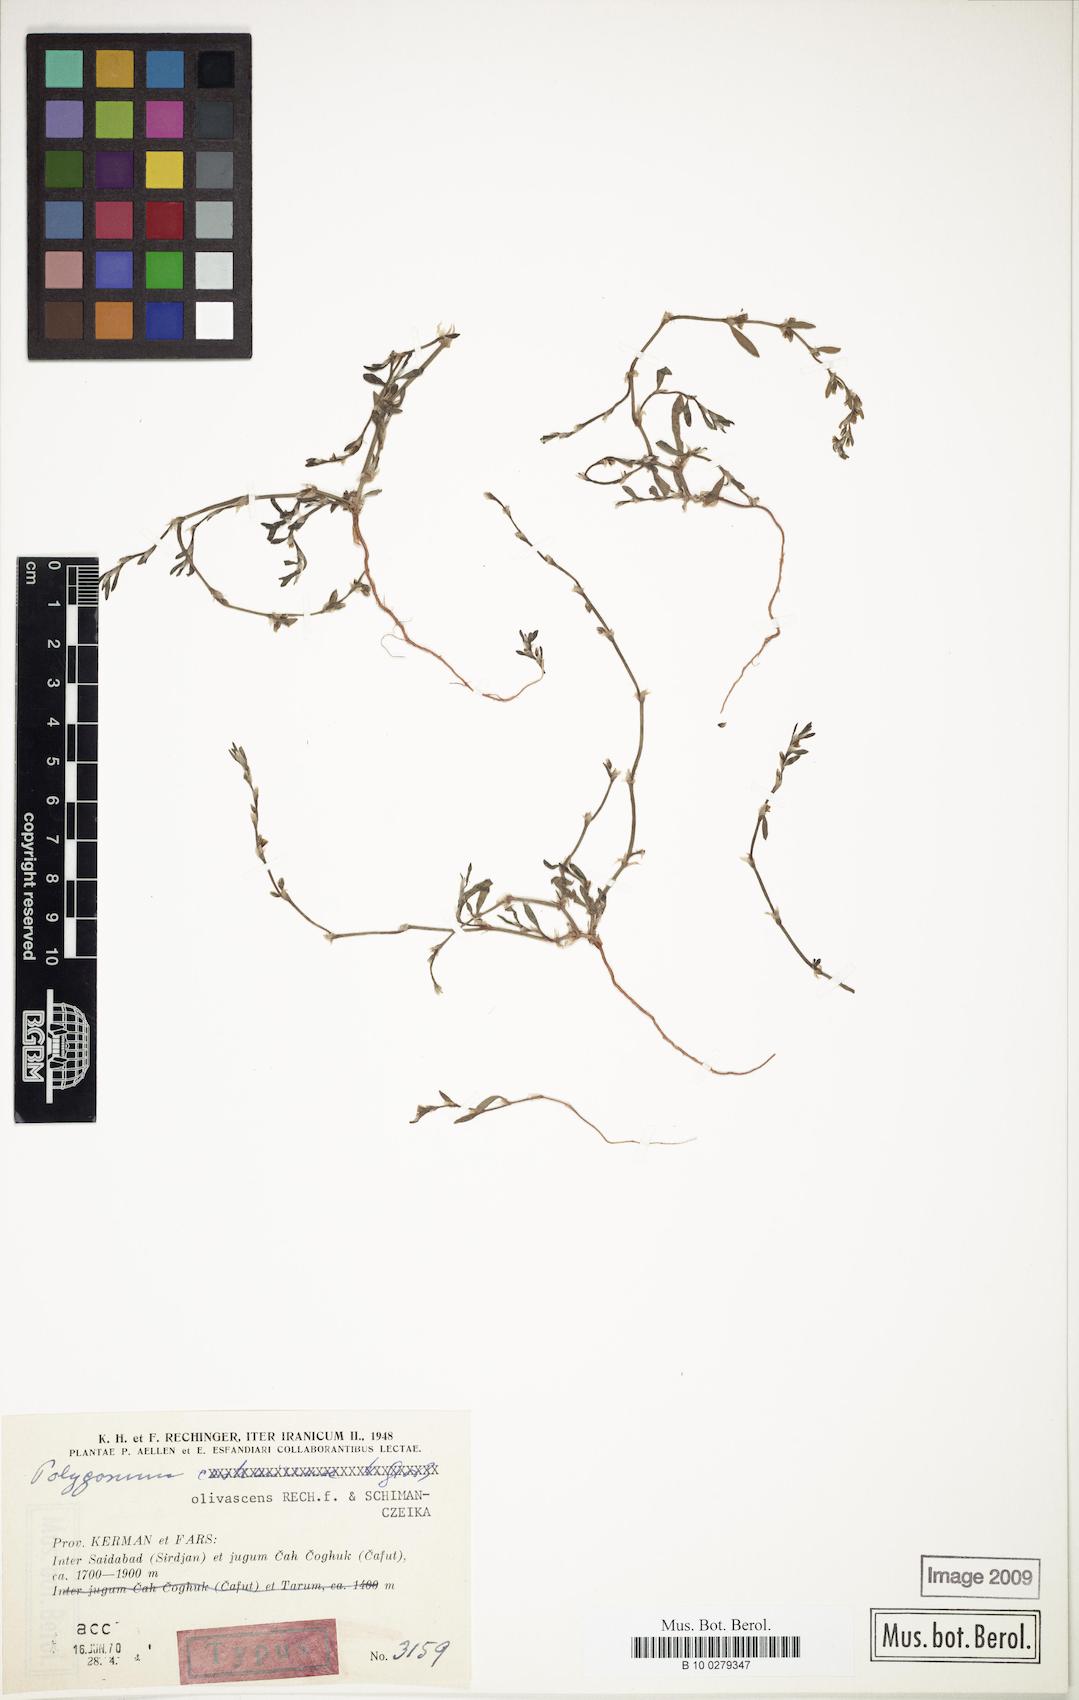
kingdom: Plantae
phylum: Tracheophyta
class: Magnoliopsida
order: Caryophyllales
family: Polygonaceae
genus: Polygonum
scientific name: Polygonum olivascens
